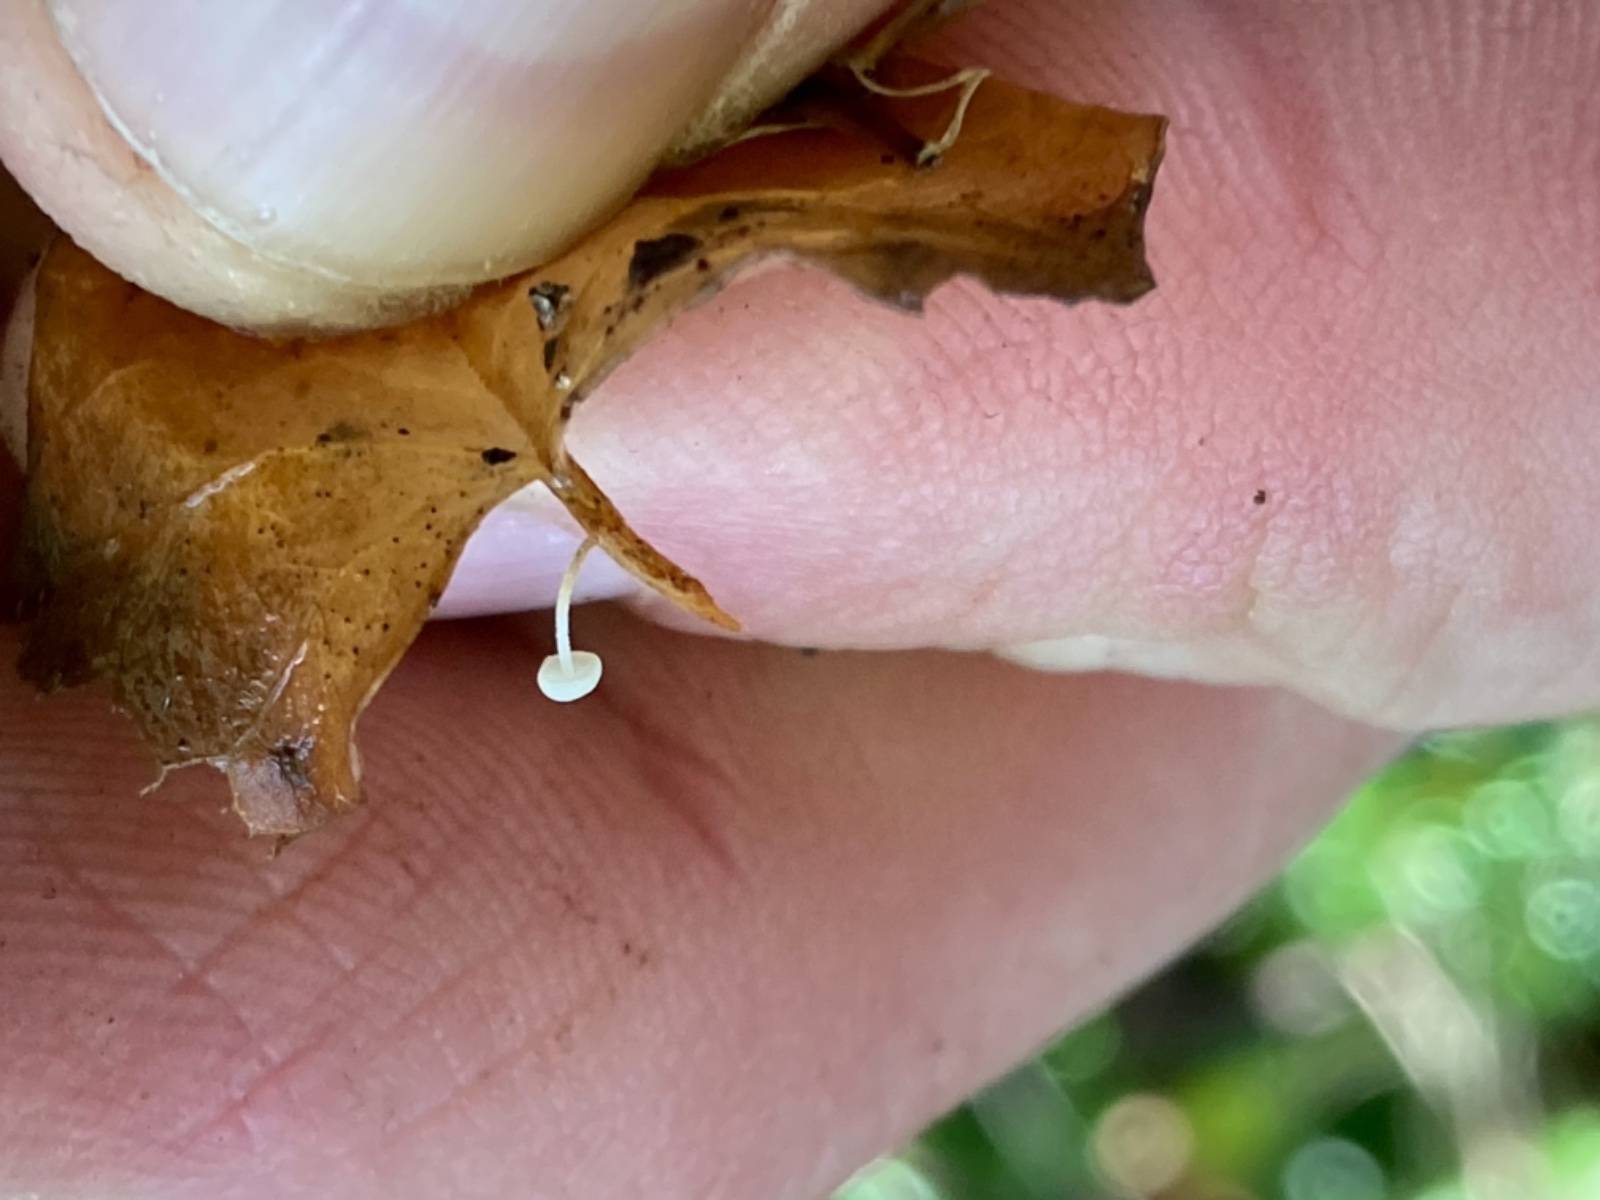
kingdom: Fungi
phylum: Basidiomycota
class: Agaricomycetes
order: Agaricales
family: Marasmiaceae
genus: Marasmius
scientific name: Marasmius epiphylloides
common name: vedbend-bruskhat
